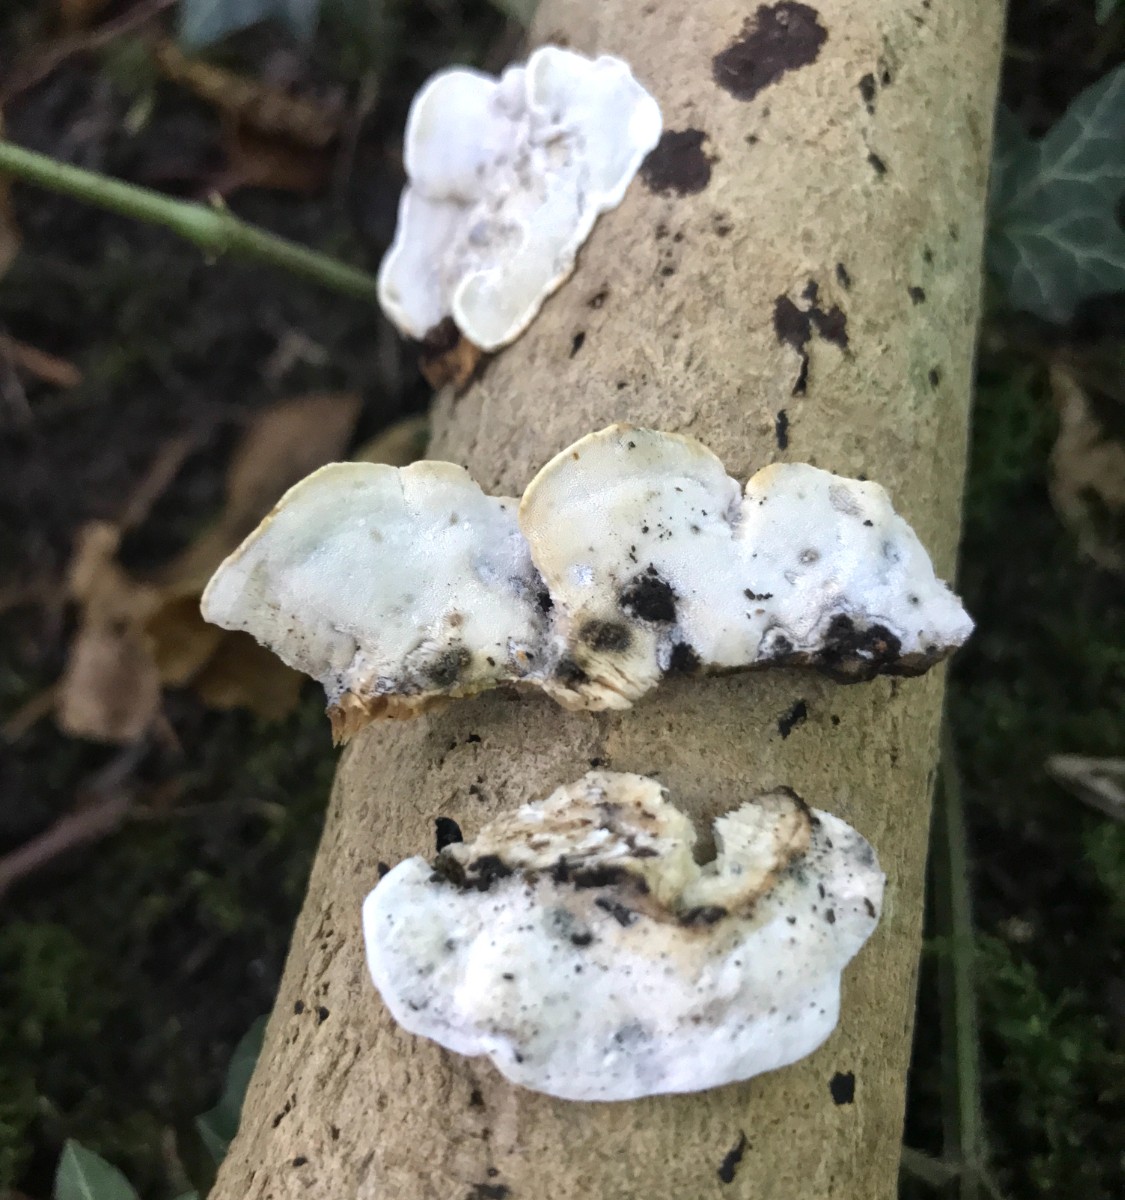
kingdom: Fungi
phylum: Basidiomycota
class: Agaricomycetes
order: Polyporales
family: Incrustoporiaceae
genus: Skeletocutis
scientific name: Skeletocutis nemoralis
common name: stor krystalporesvamp
